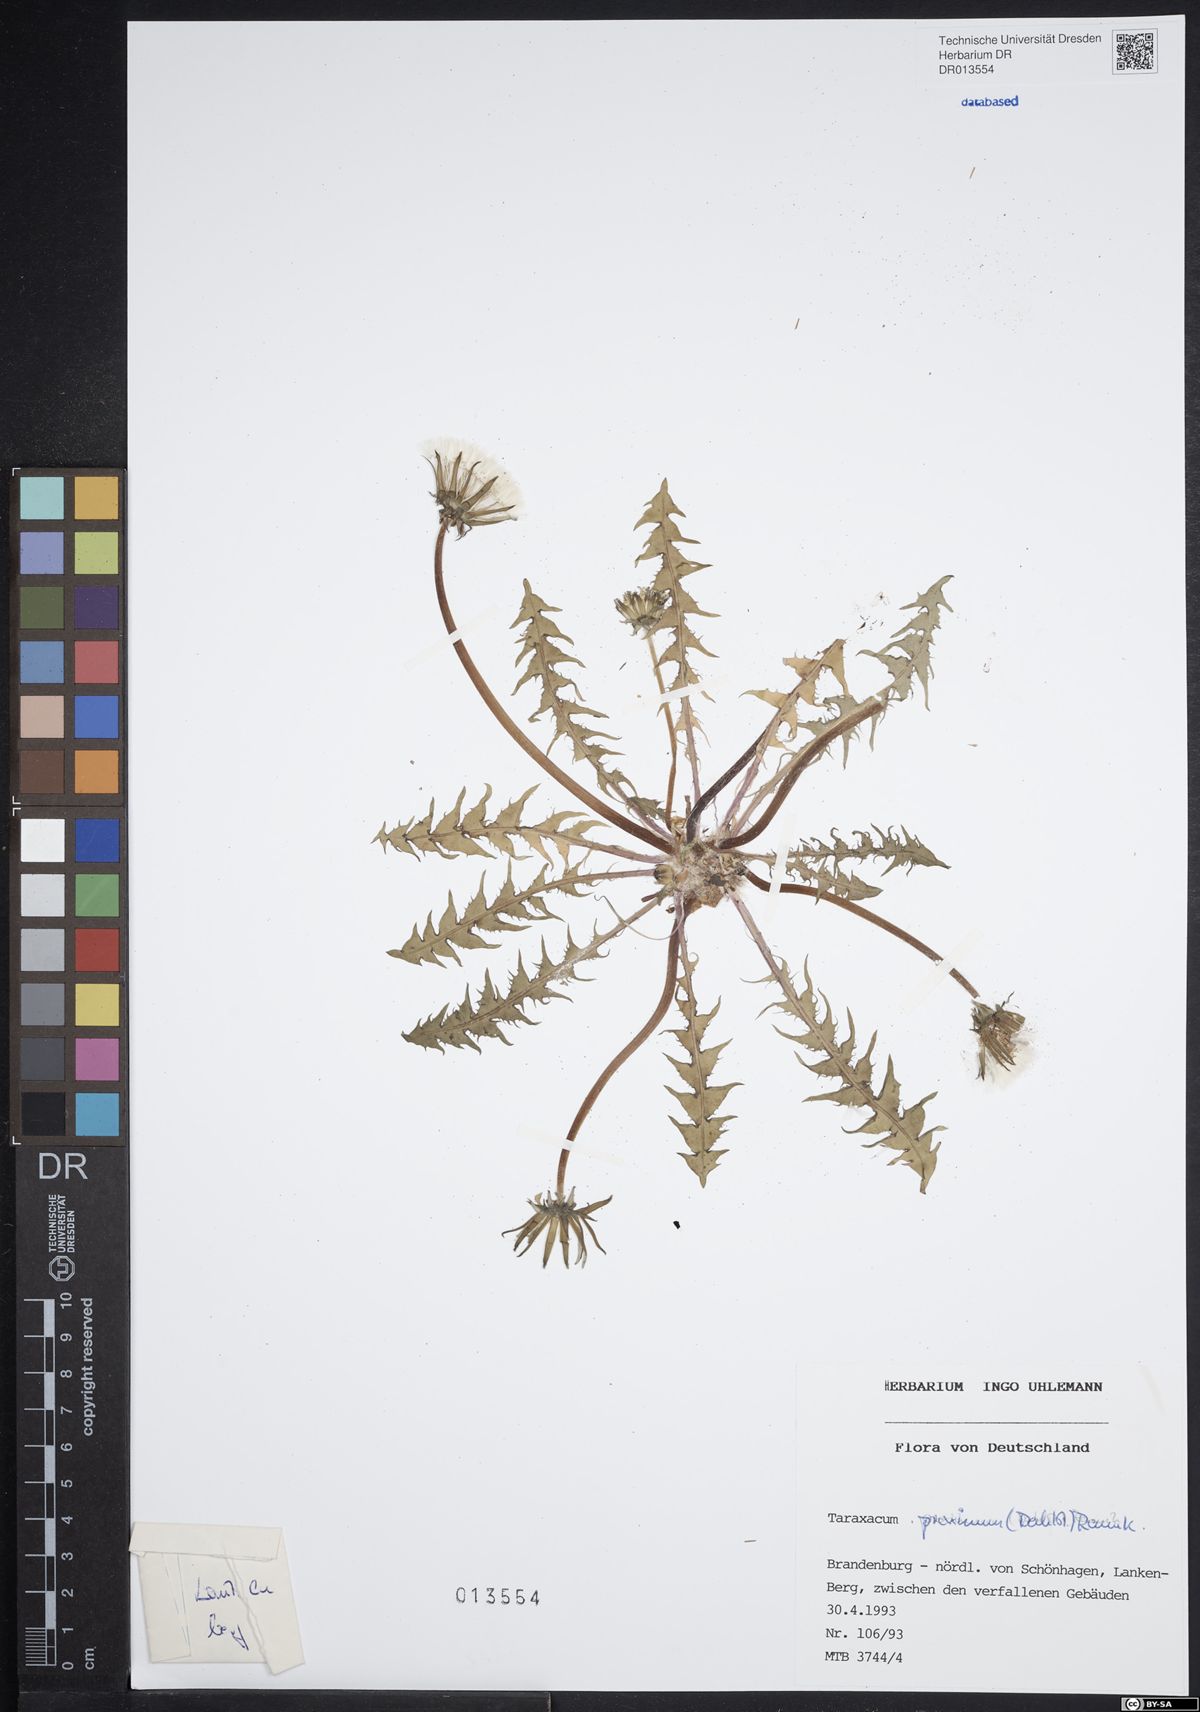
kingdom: Plantae
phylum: Tracheophyta
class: Magnoliopsida
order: Asterales
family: Asteraceae
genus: Taraxacum
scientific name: Taraxacum proximum
